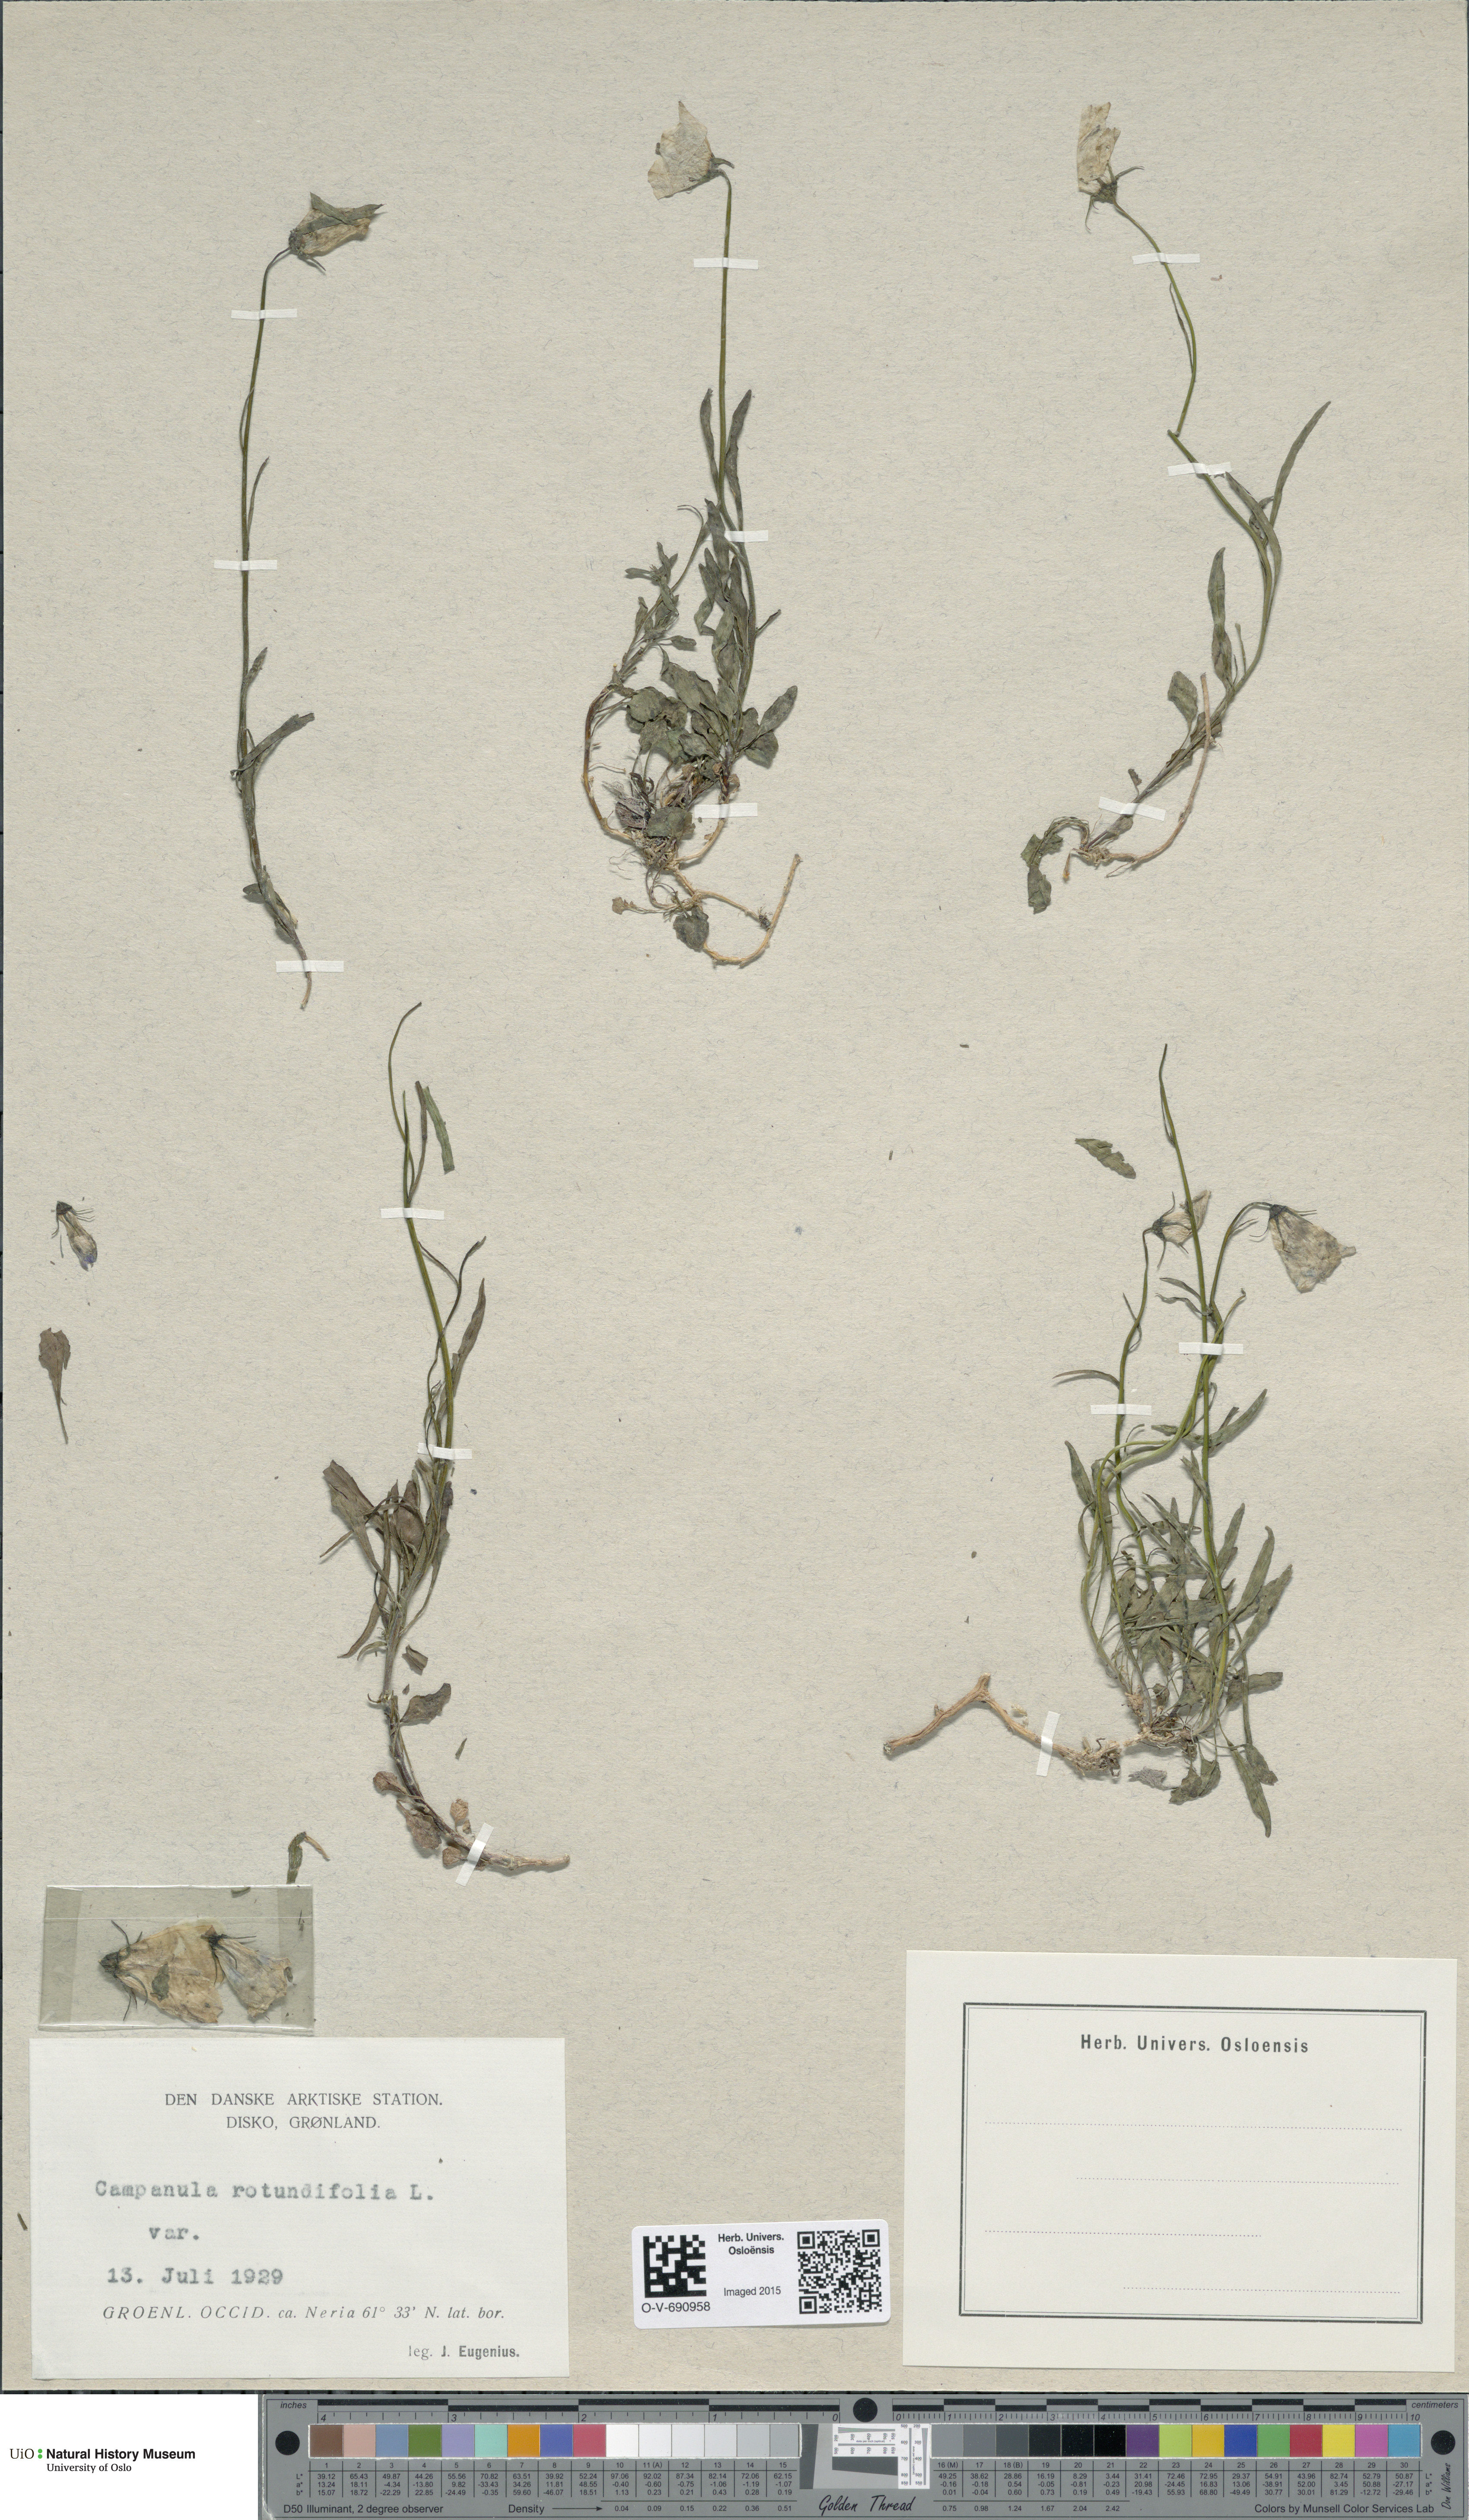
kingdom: Plantae
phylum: Tracheophyta
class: Magnoliopsida
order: Asterales
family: Campanulaceae
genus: Campanula
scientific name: Campanula rotundifolia
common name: Harebell
